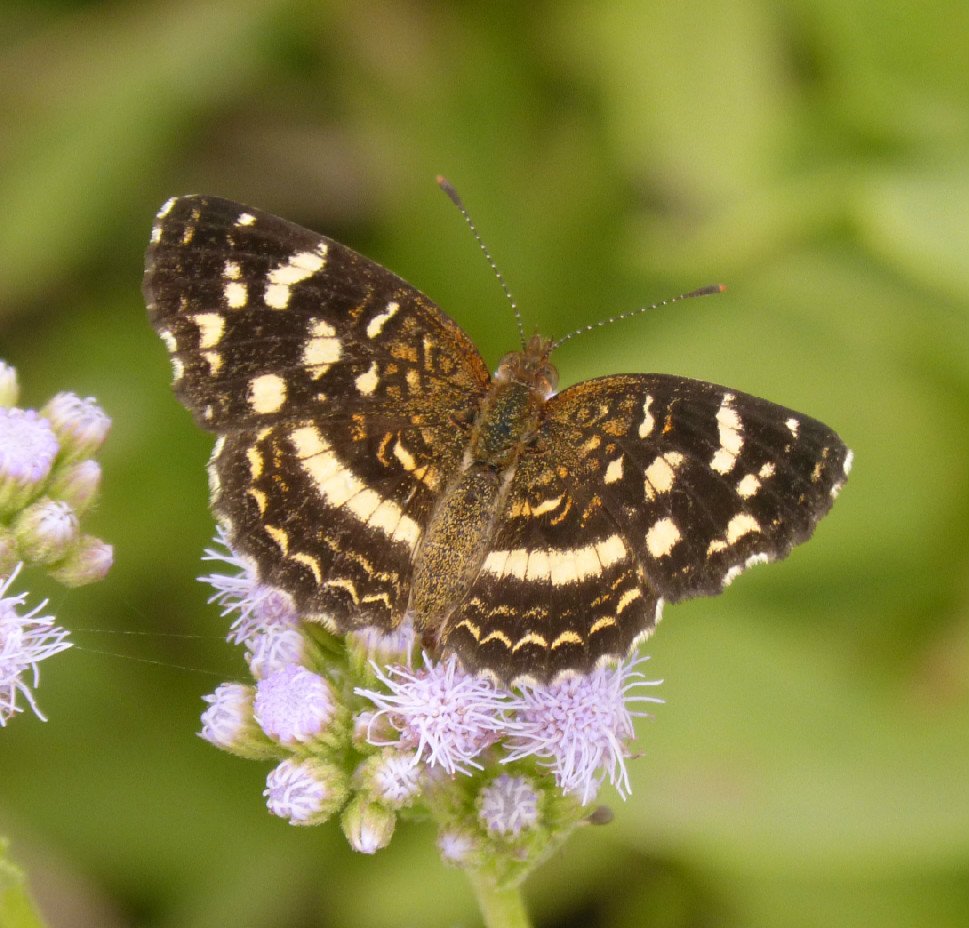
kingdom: Animalia
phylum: Arthropoda
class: Insecta
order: Lepidoptera
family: Nymphalidae
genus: Anthanassa
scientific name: Anthanassa tulcis
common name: Pale-banded Crescent
